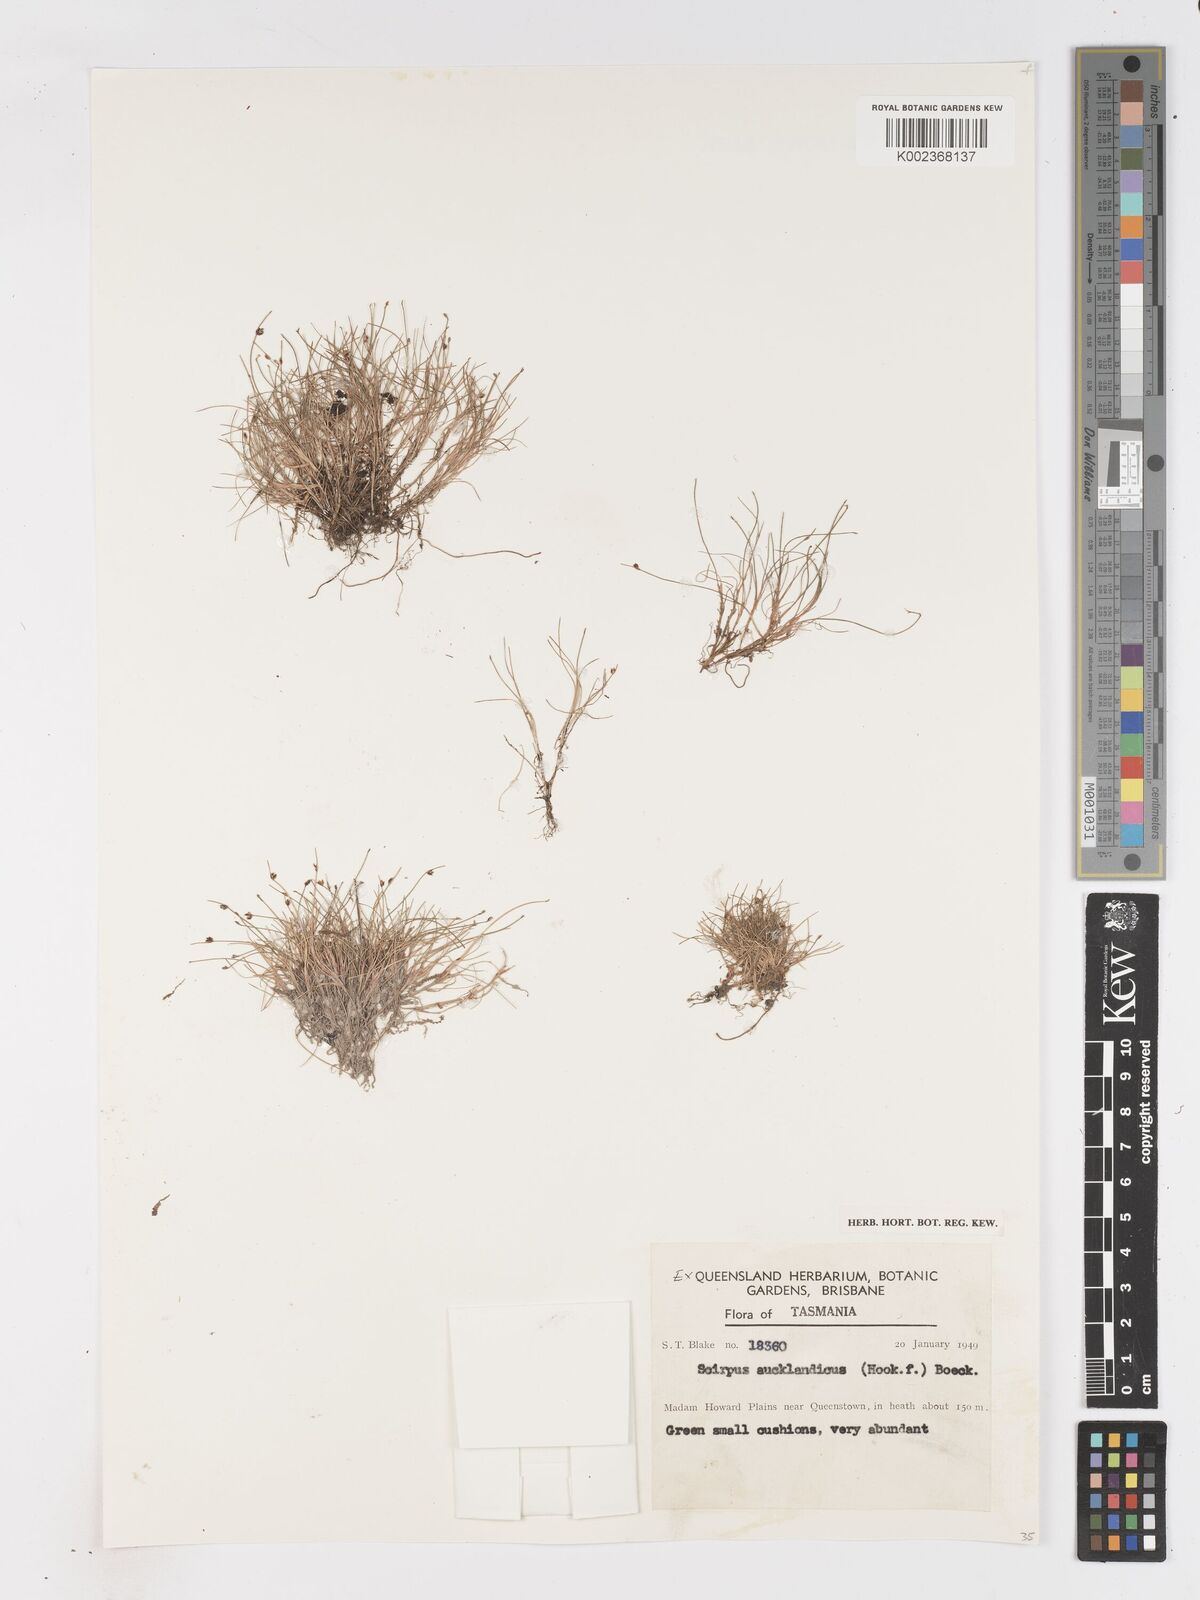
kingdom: Plantae
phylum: Tracheophyta
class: Liliopsida
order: Poales
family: Cyperaceae
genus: Isolepis
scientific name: Isolepis aucklandica
